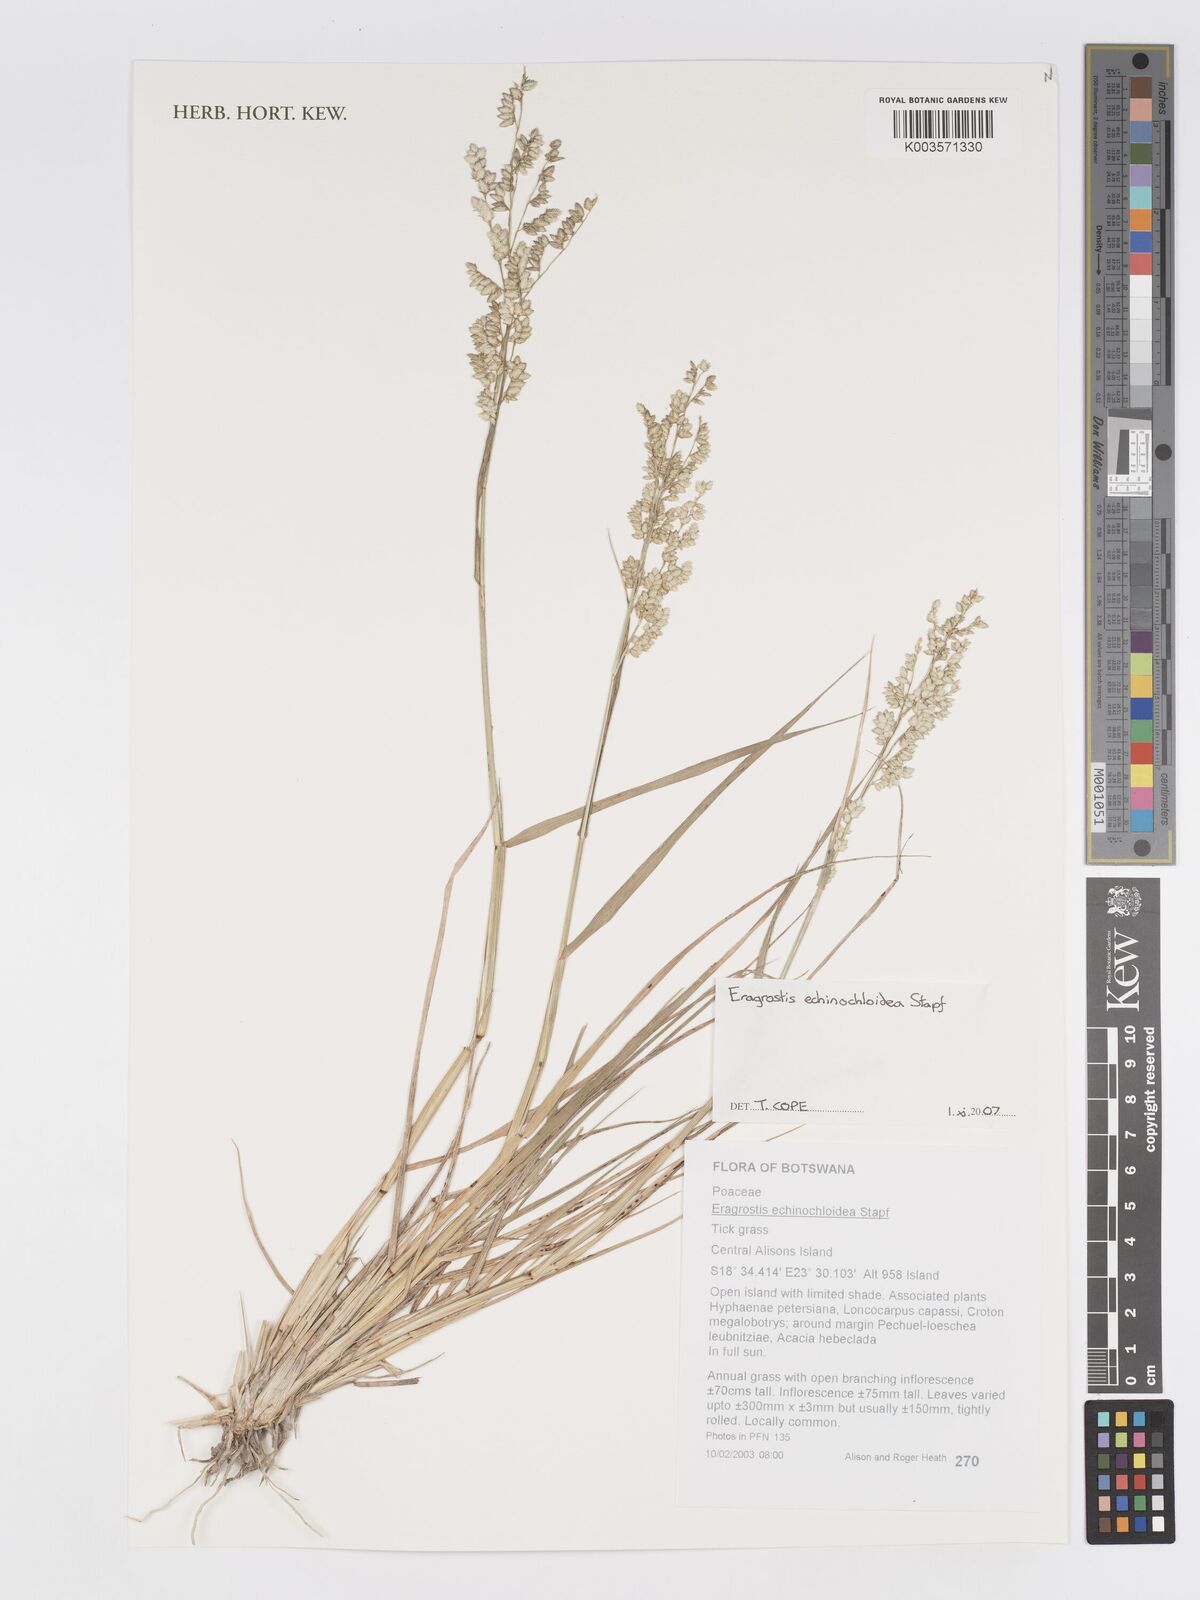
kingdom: Plantae
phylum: Tracheophyta
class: Liliopsida
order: Poales
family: Poaceae
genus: Eragrostis
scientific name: Eragrostis echinochloidea
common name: African lovegrass
